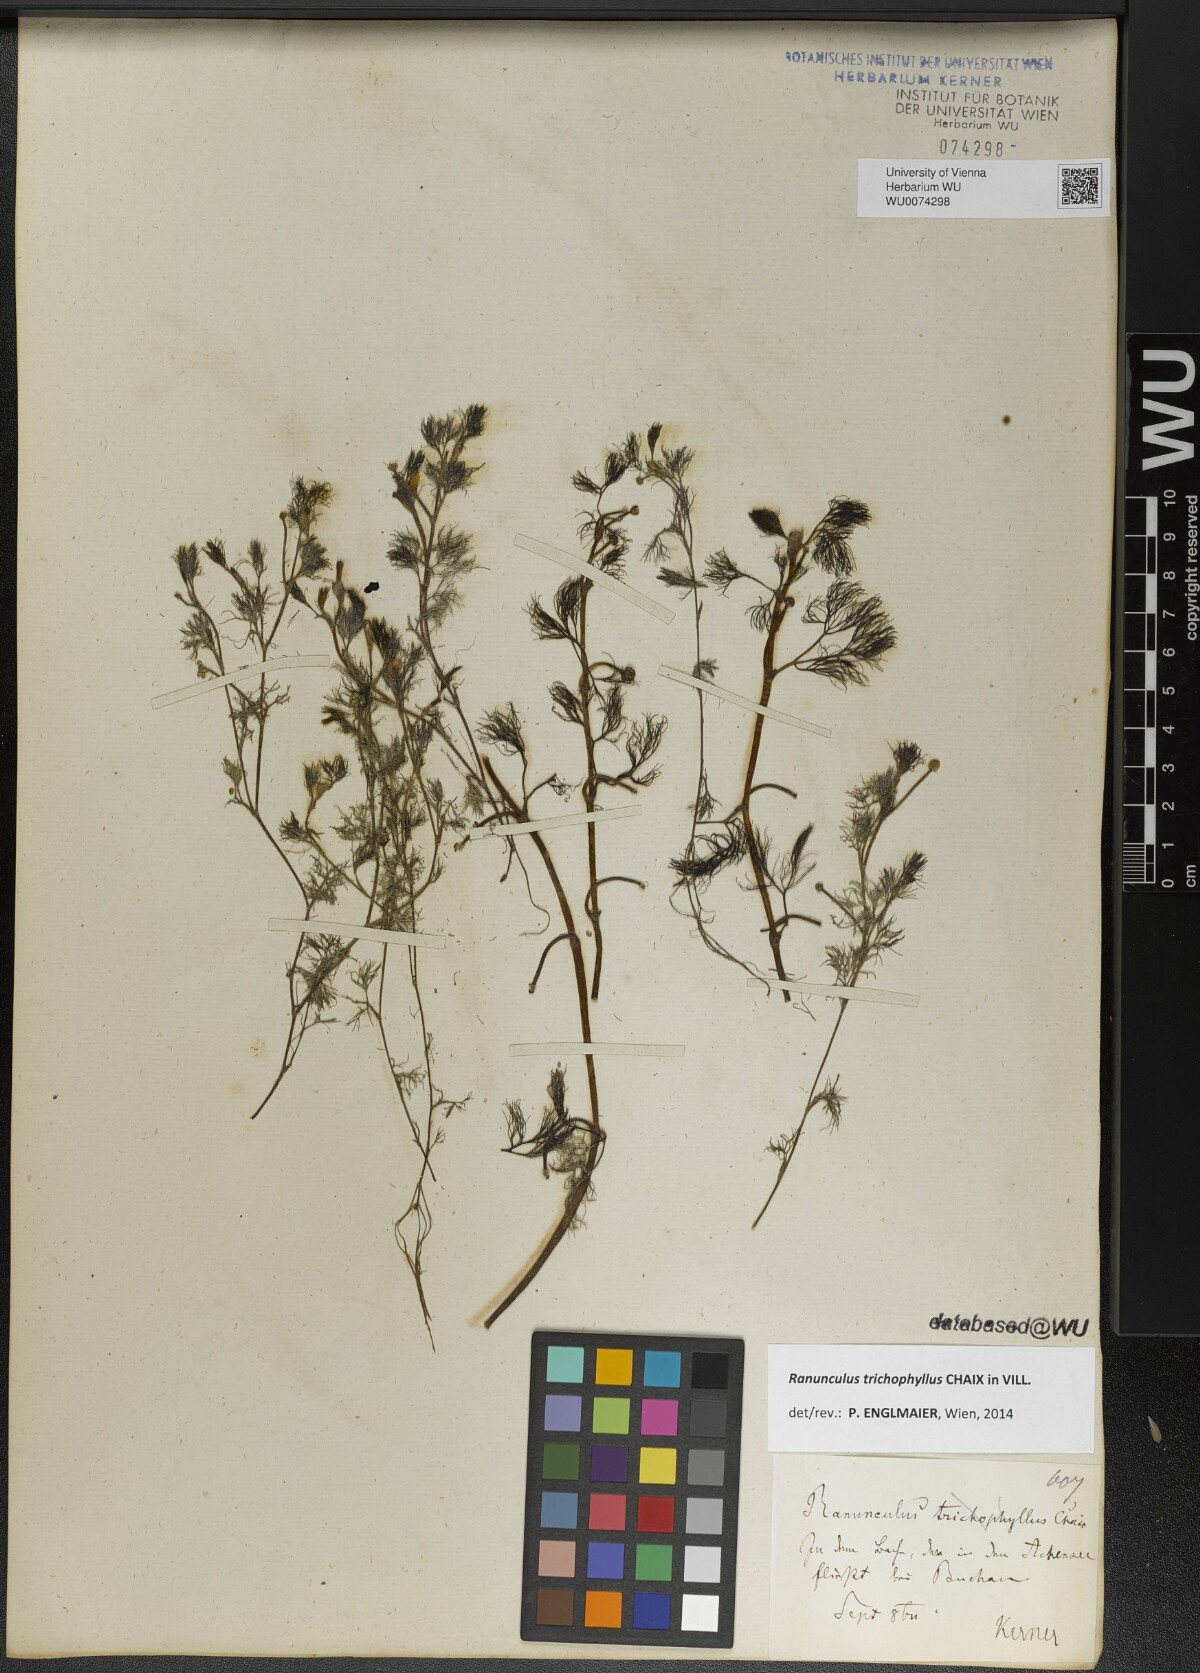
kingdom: Plantae
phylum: Tracheophyta
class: Magnoliopsida
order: Ranunculales
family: Ranunculaceae
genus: Ranunculus
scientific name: Ranunculus trichophyllus
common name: Thread-leaved water-crowfoot
